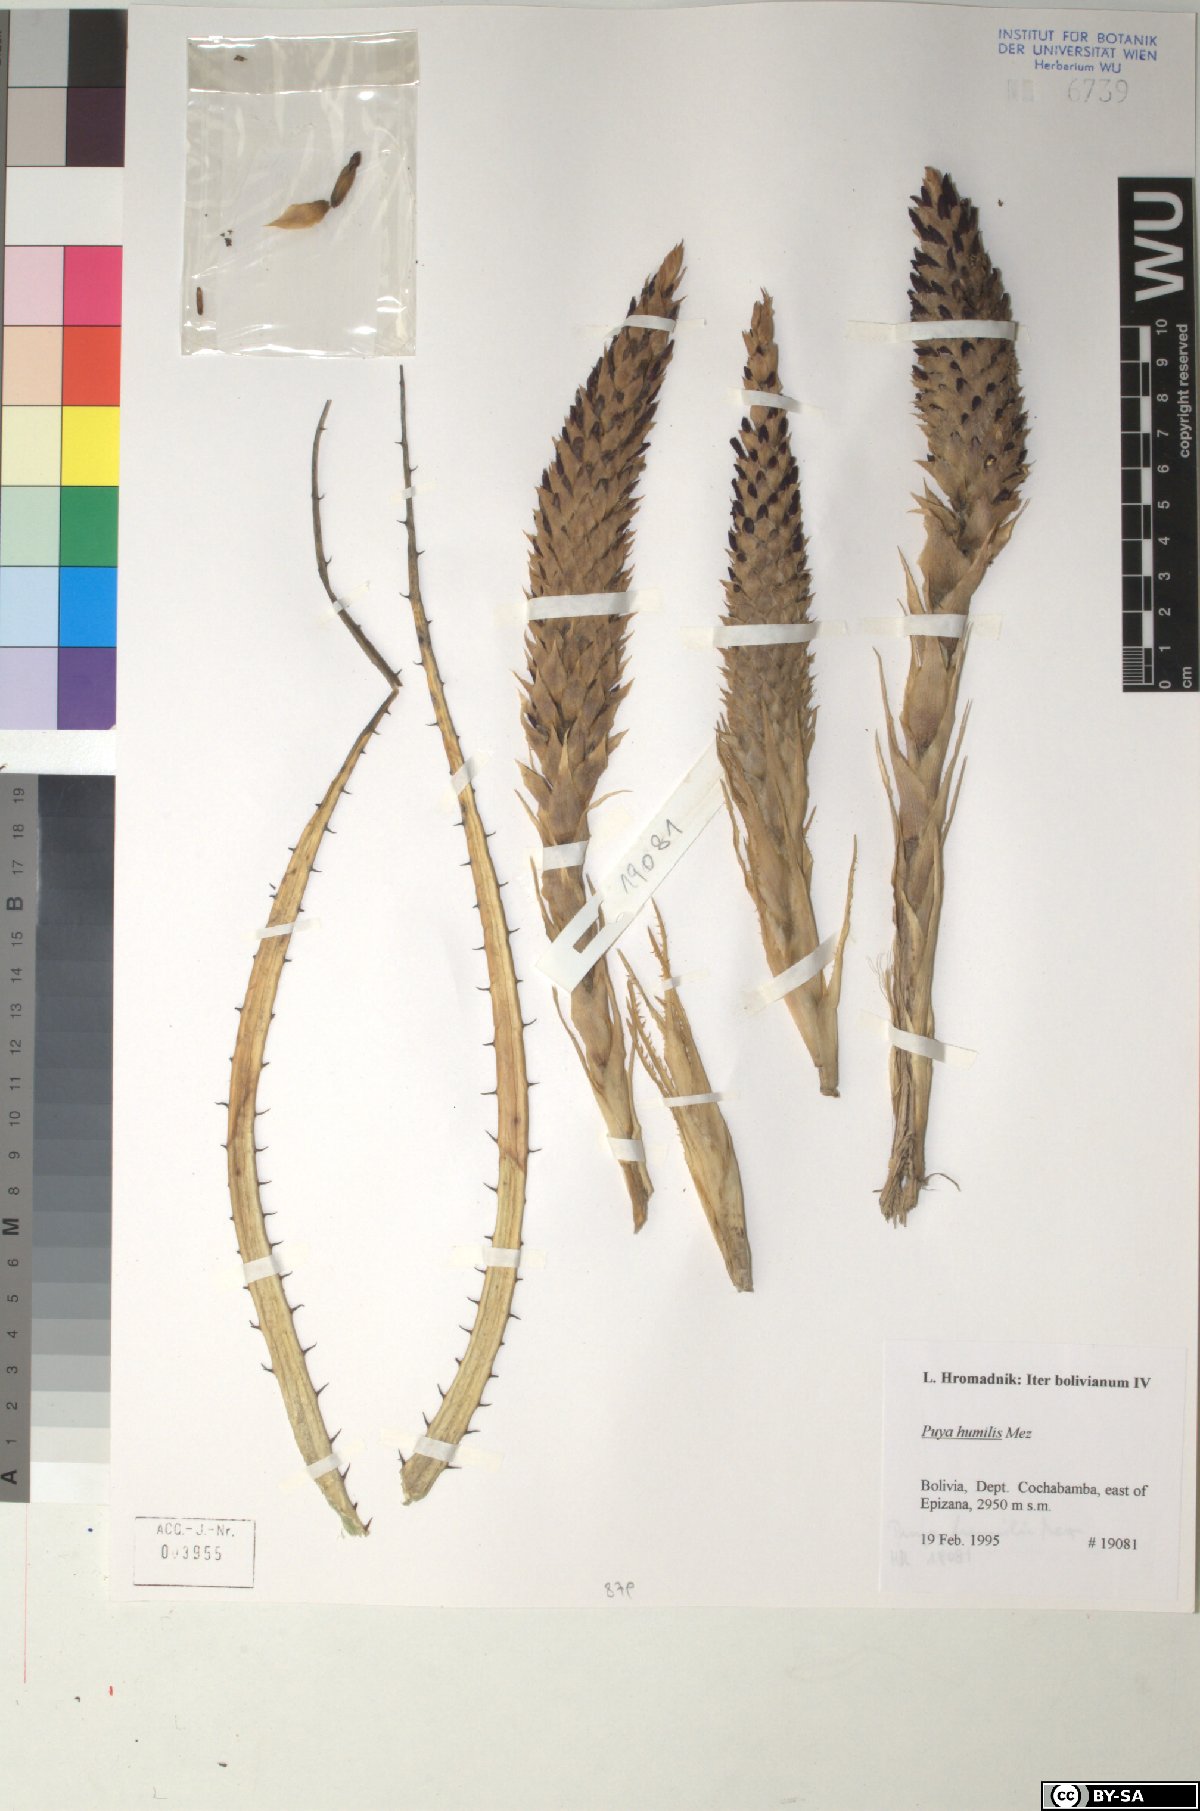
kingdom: Plantae
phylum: Tracheophyta
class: Liliopsida
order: Poales
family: Bromeliaceae
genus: Puya
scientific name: Puya humilis
